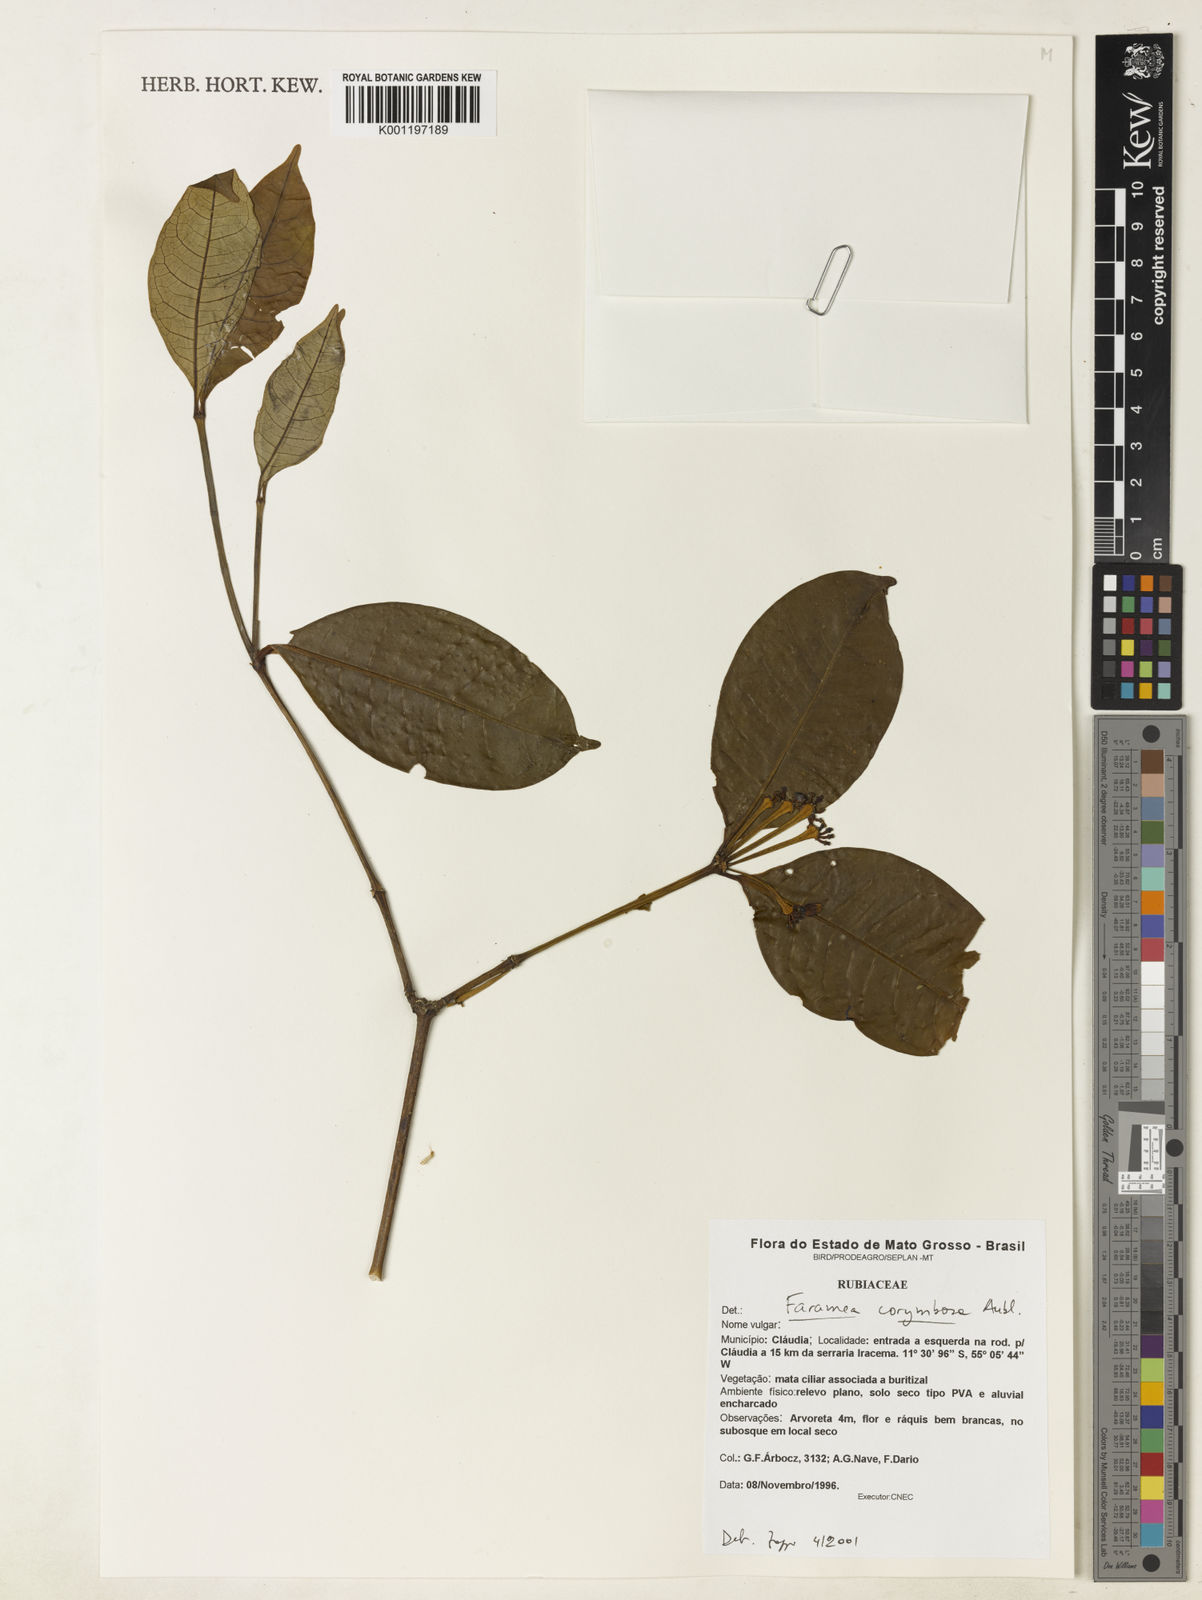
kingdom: Plantae
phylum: Tracheophyta
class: Magnoliopsida
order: Gentianales
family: Rubiaceae
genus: Faramea
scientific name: Faramea corymbosa
